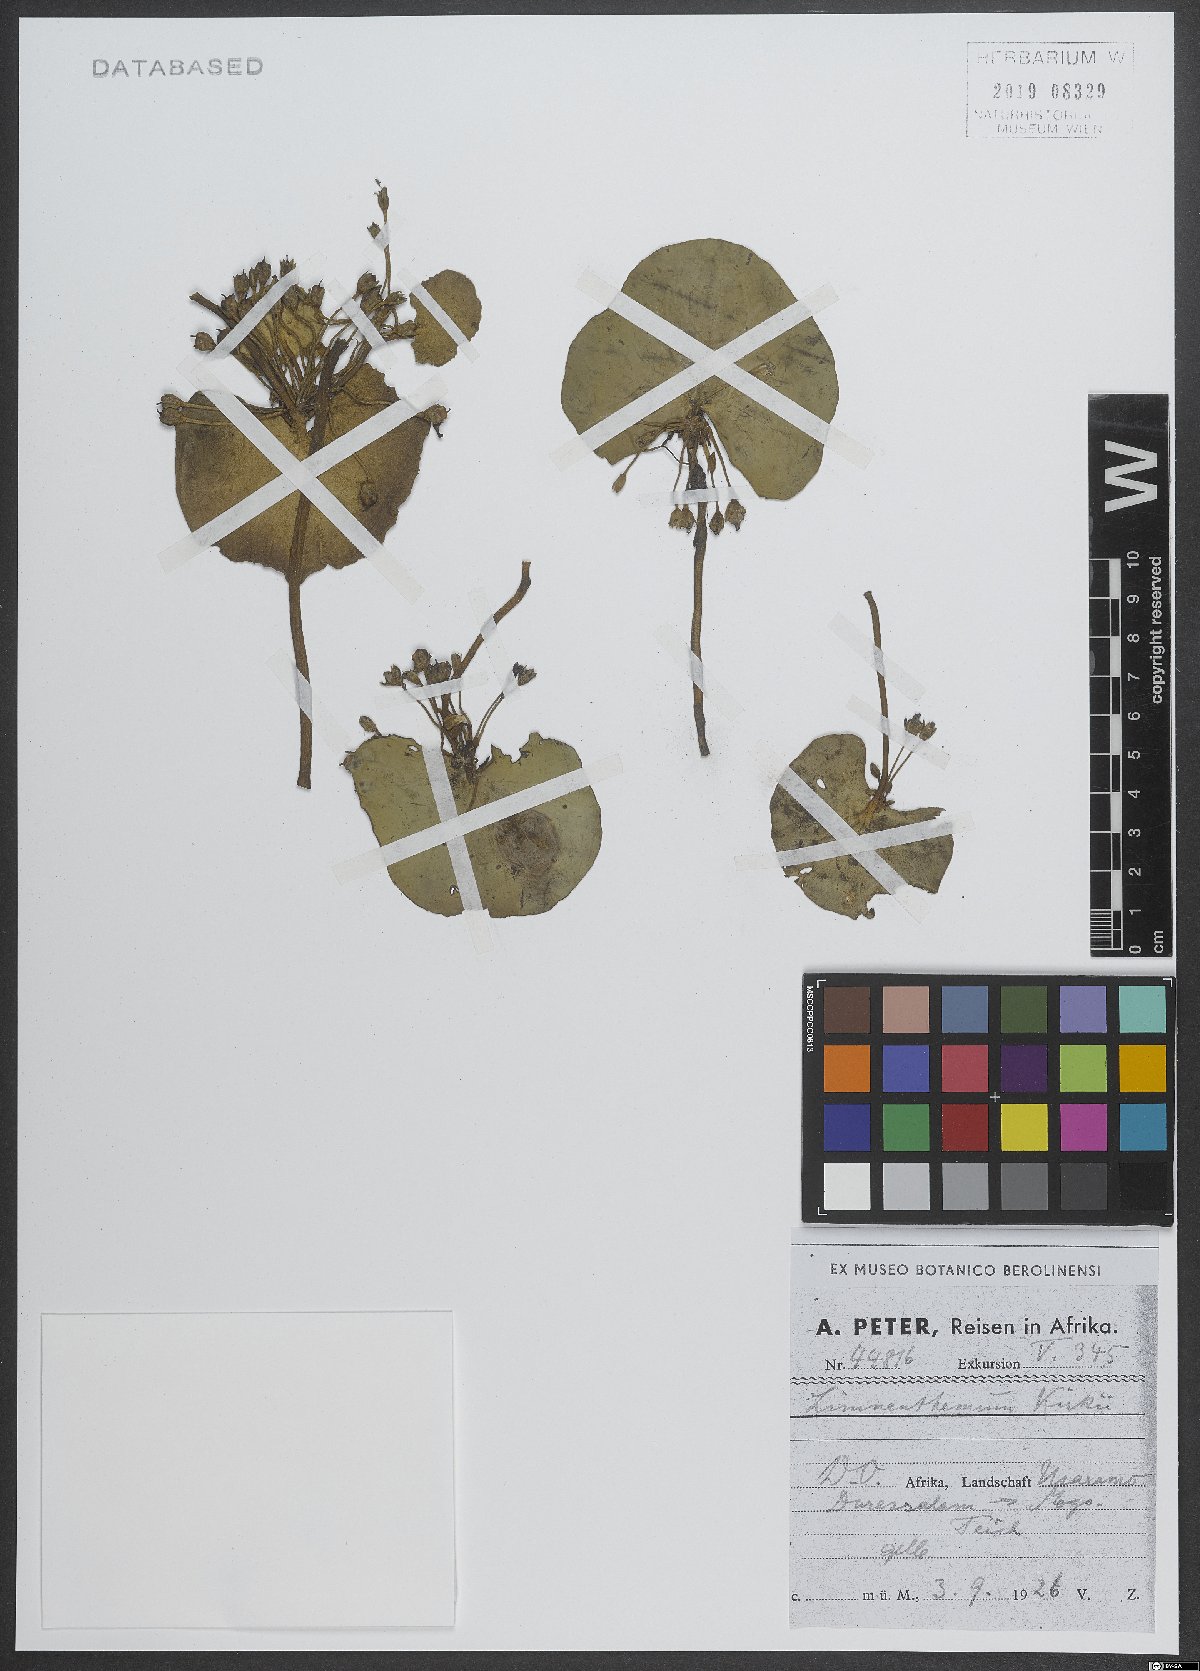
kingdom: Plantae
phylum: Tracheophyta
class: Magnoliopsida
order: Asterales
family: Menyanthaceae
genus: Nymphoides
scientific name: Nymphoides
